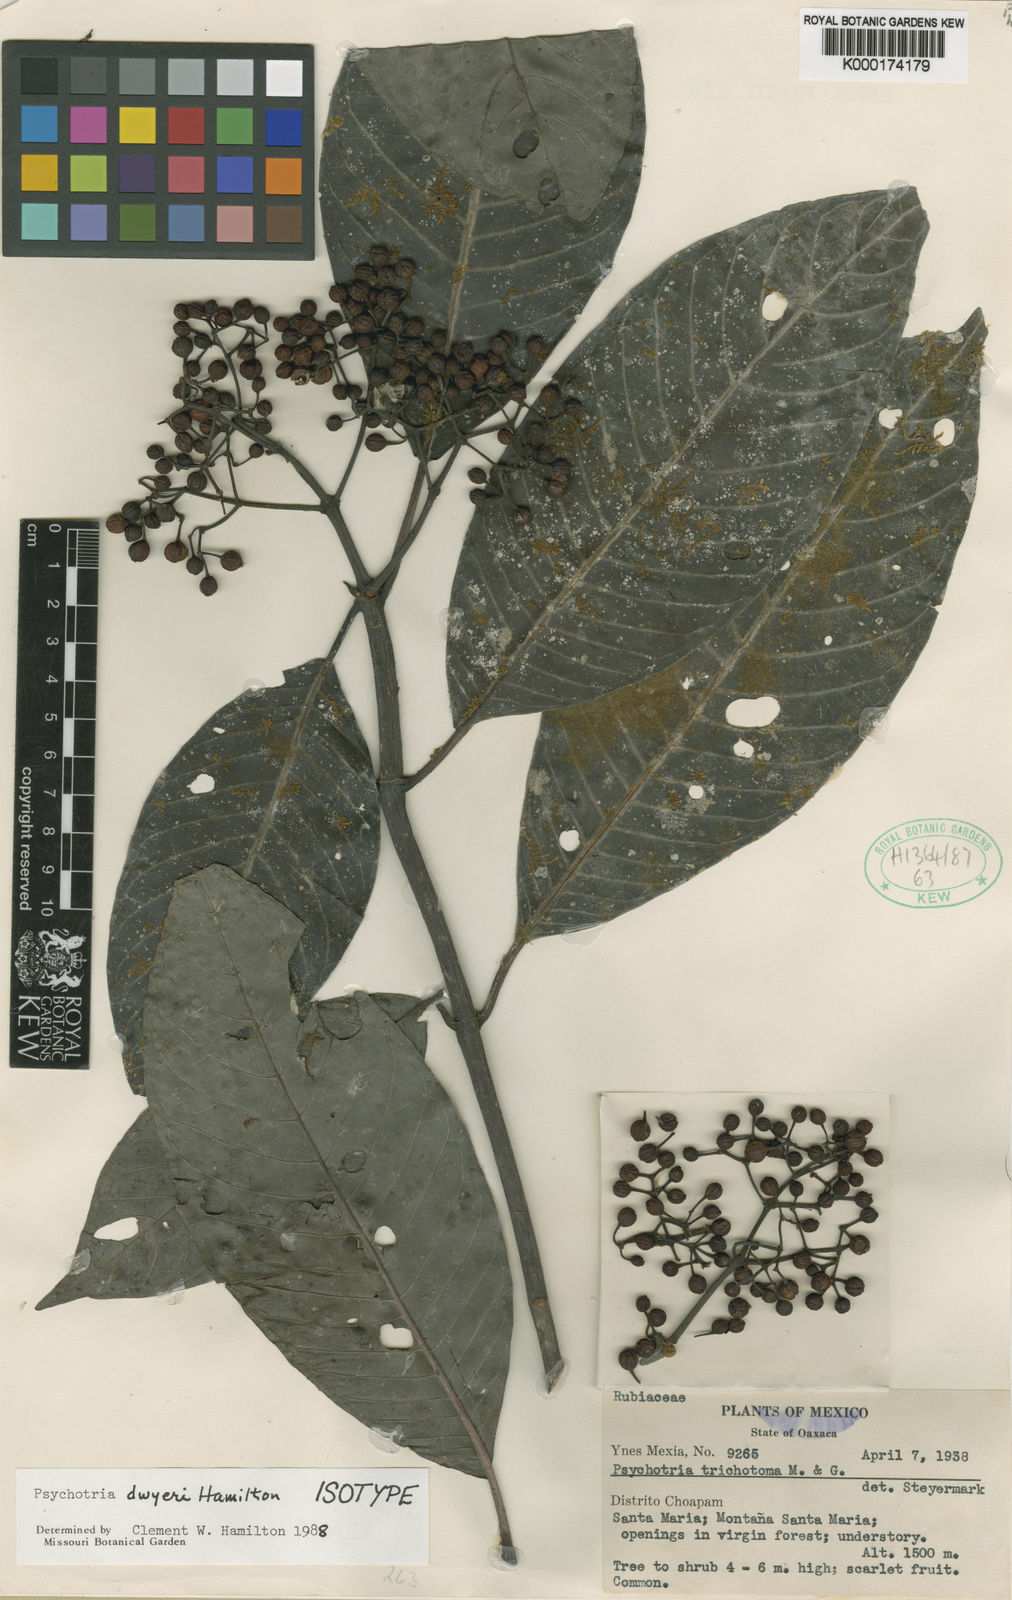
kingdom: Plantae
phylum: Tracheophyta
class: Magnoliopsida
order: Gentianales
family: Rubiaceae
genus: Psychotria
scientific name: Psychotria dwyeri
